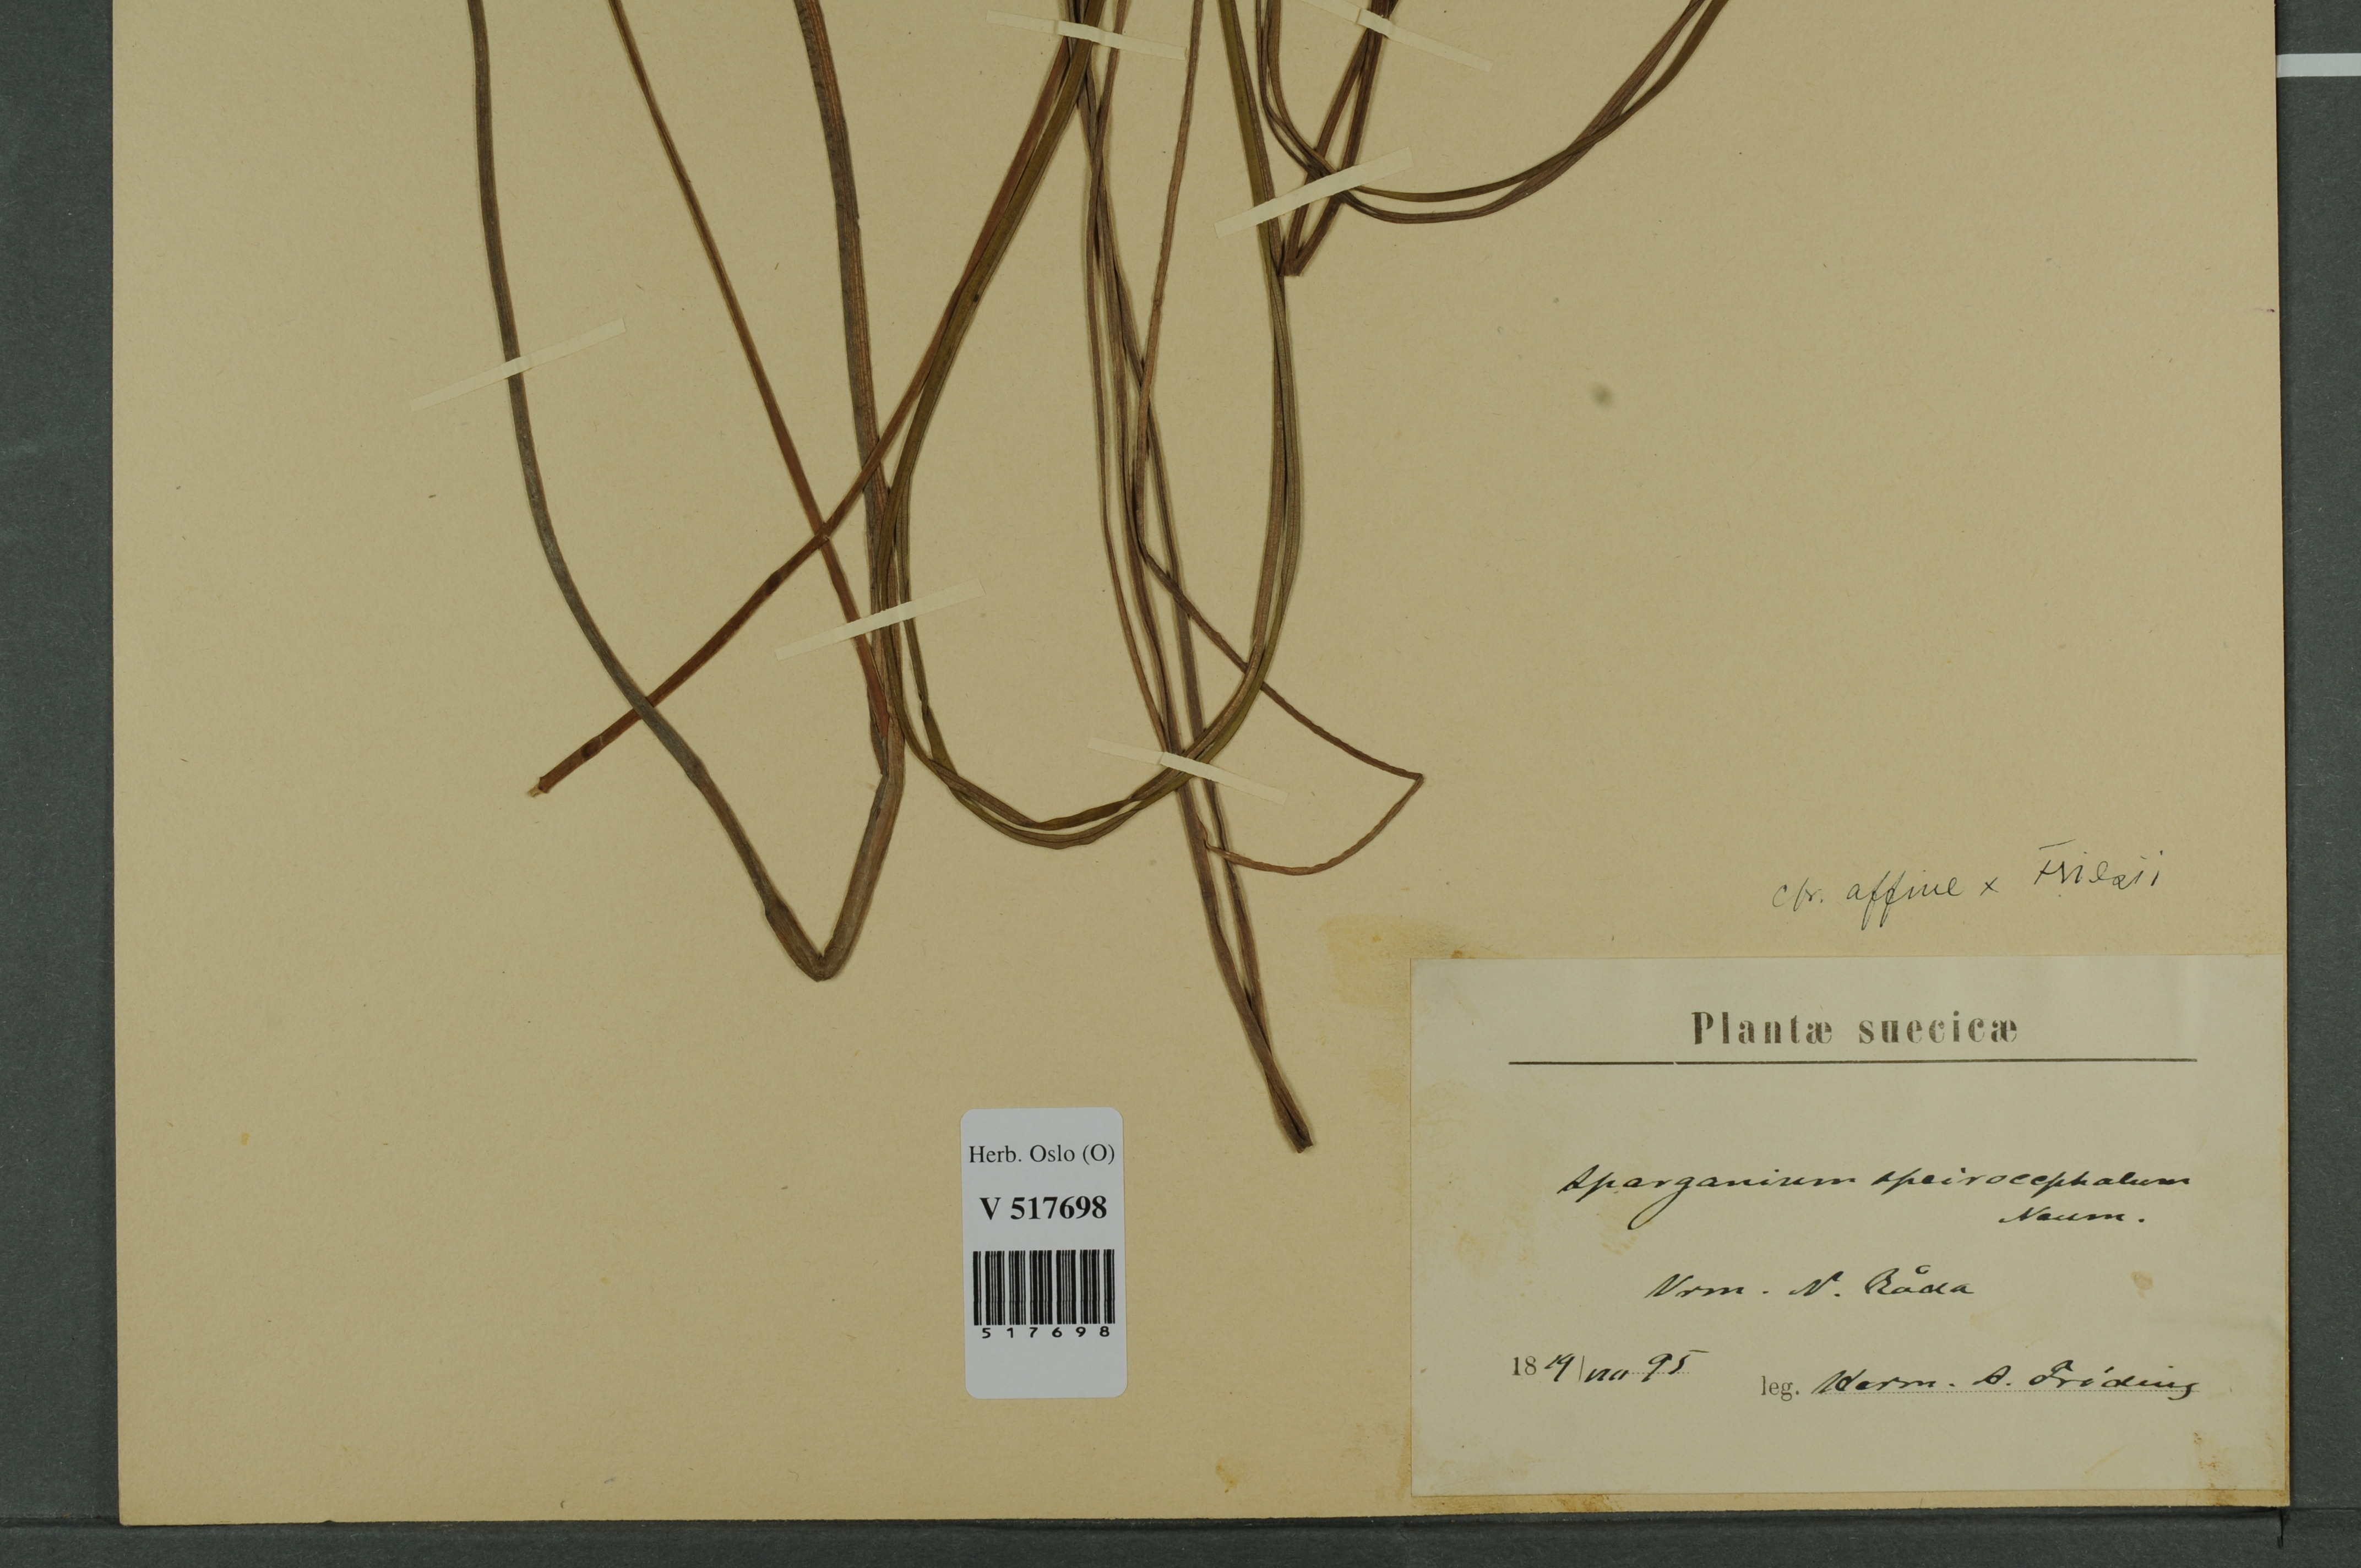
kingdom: Plantae
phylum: Tracheophyta
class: Liliopsida
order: Poales
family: Typhaceae
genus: Sparganium
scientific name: Sparganium
